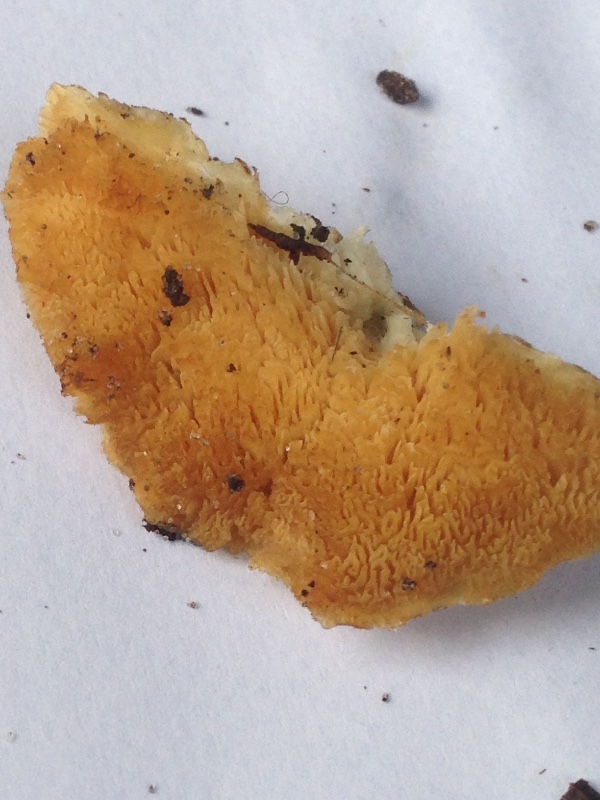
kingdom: Fungi
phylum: Basidiomycota
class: Agaricomycetes
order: Polyporales
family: Polyporaceae
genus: Trametes
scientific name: Trametes
